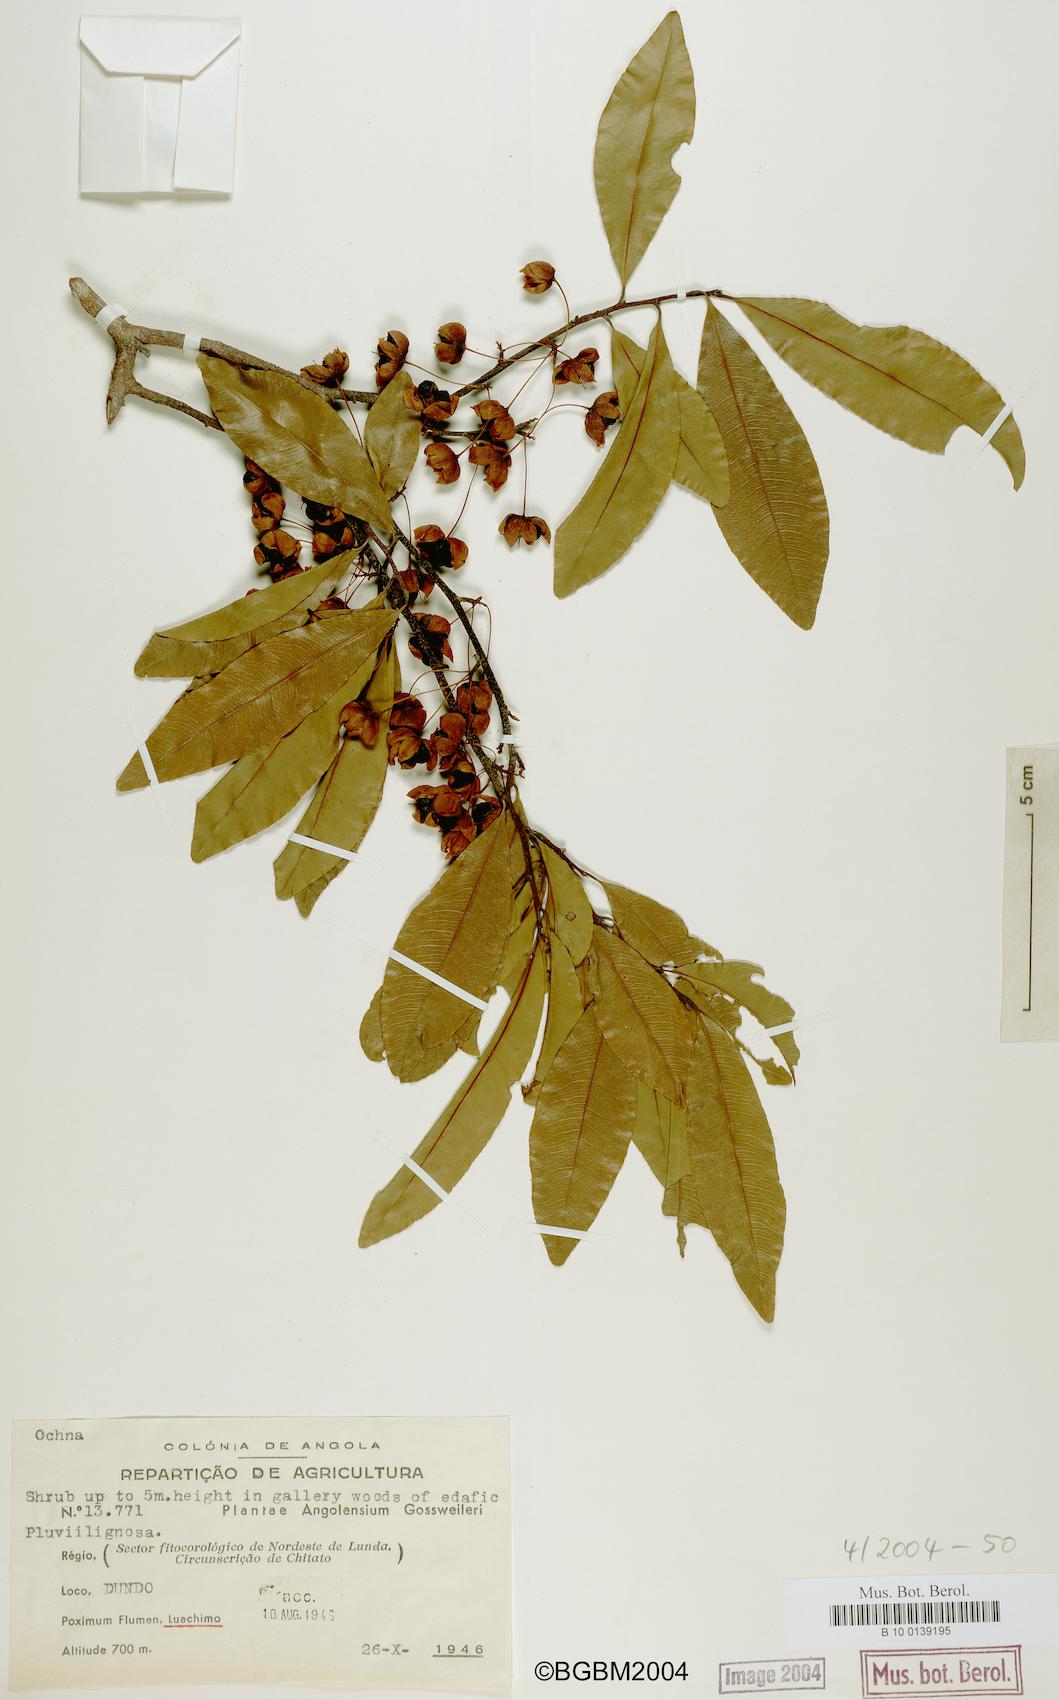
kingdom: Plantae
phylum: Tracheophyta
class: Magnoliopsida
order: Malpighiales
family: Ochnaceae
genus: Ochna
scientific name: Ochna
